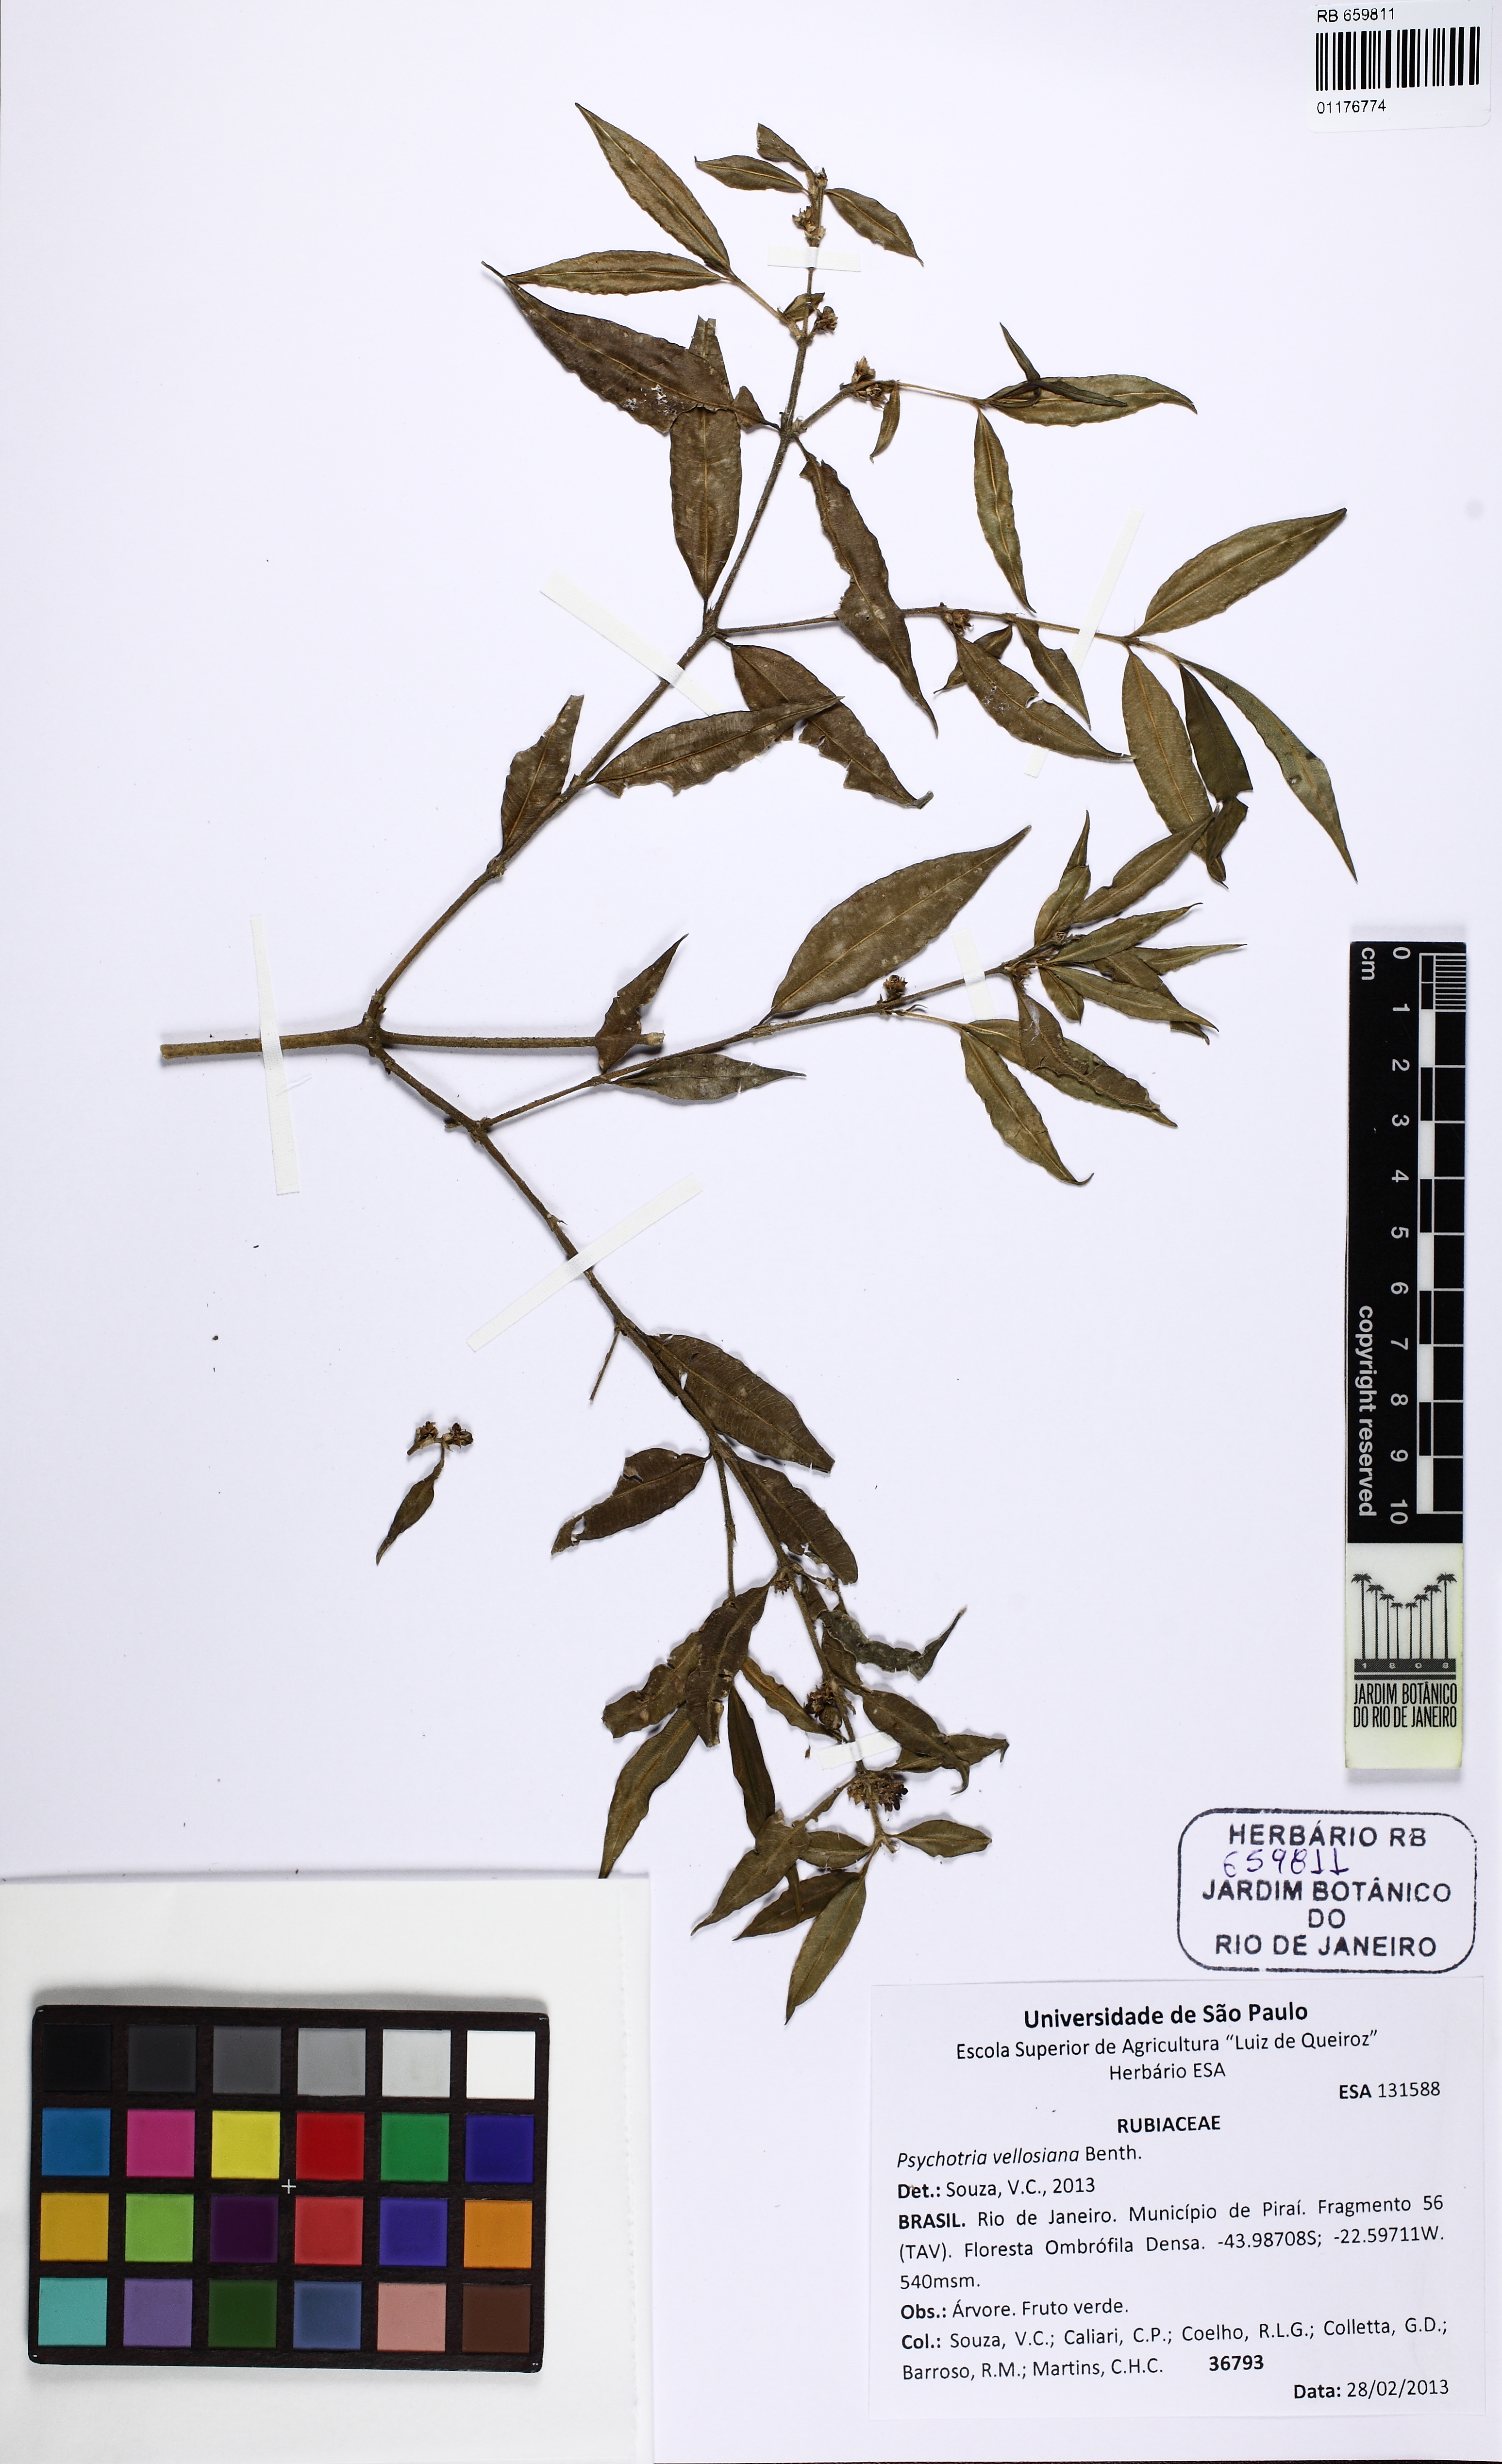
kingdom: Plantae
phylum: Tracheophyta
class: Magnoliopsida
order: Gentianales
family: Rubiaceae
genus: Palicourea
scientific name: Palicourea sessilis
